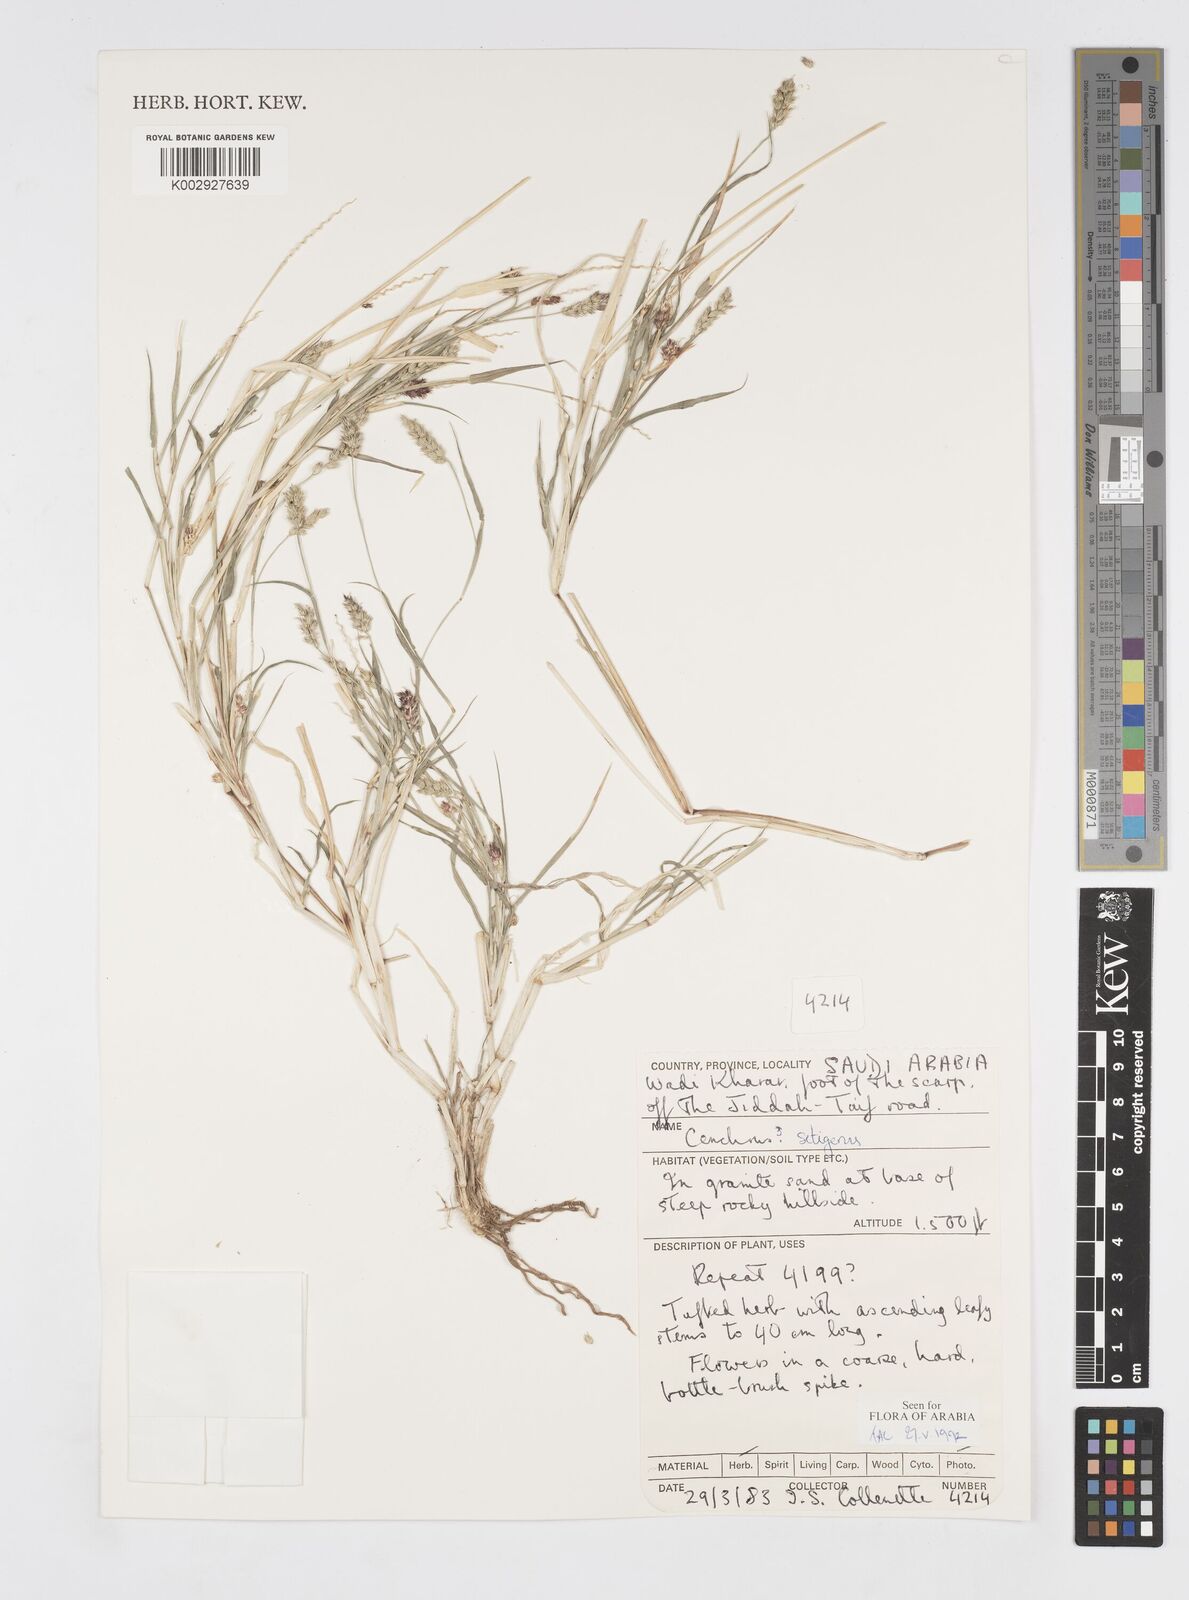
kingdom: Plantae
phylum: Tracheophyta
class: Liliopsida
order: Poales
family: Poaceae
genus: Cenchrus
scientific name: Cenchrus setigerus
